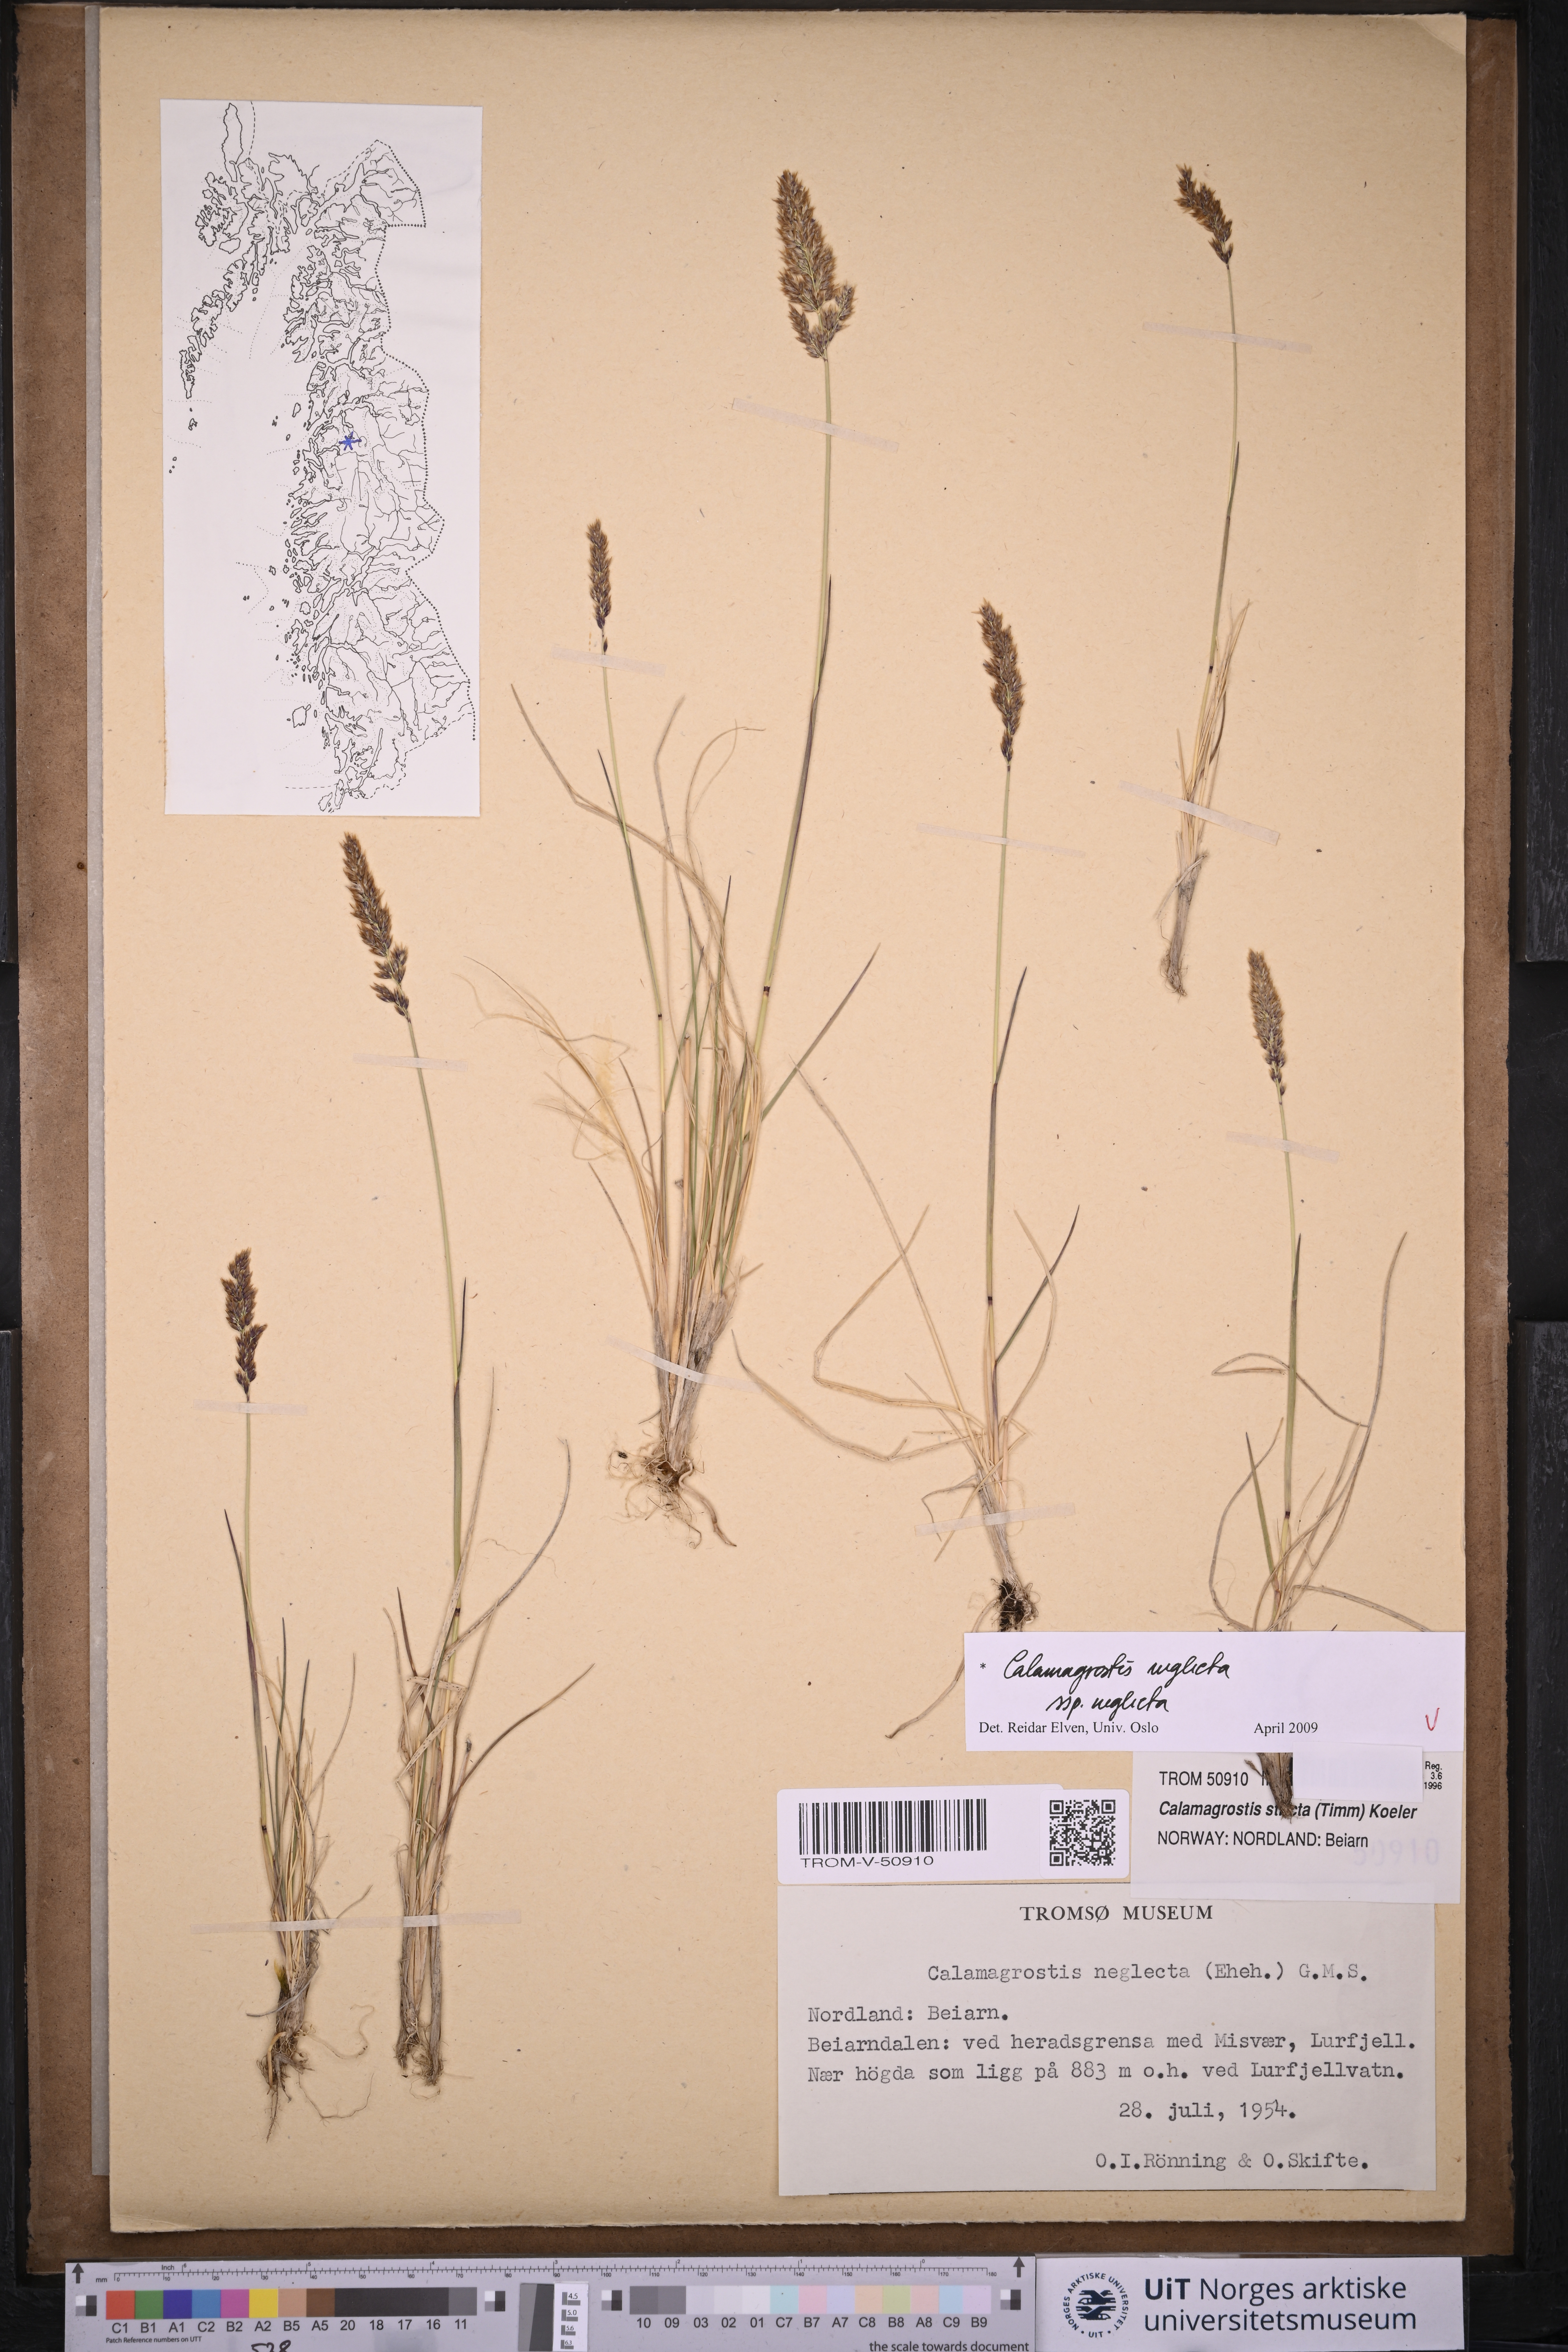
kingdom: Plantae
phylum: Tracheophyta
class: Liliopsida
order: Poales
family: Poaceae
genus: Achnatherum
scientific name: Achnatherum calamagrostis
